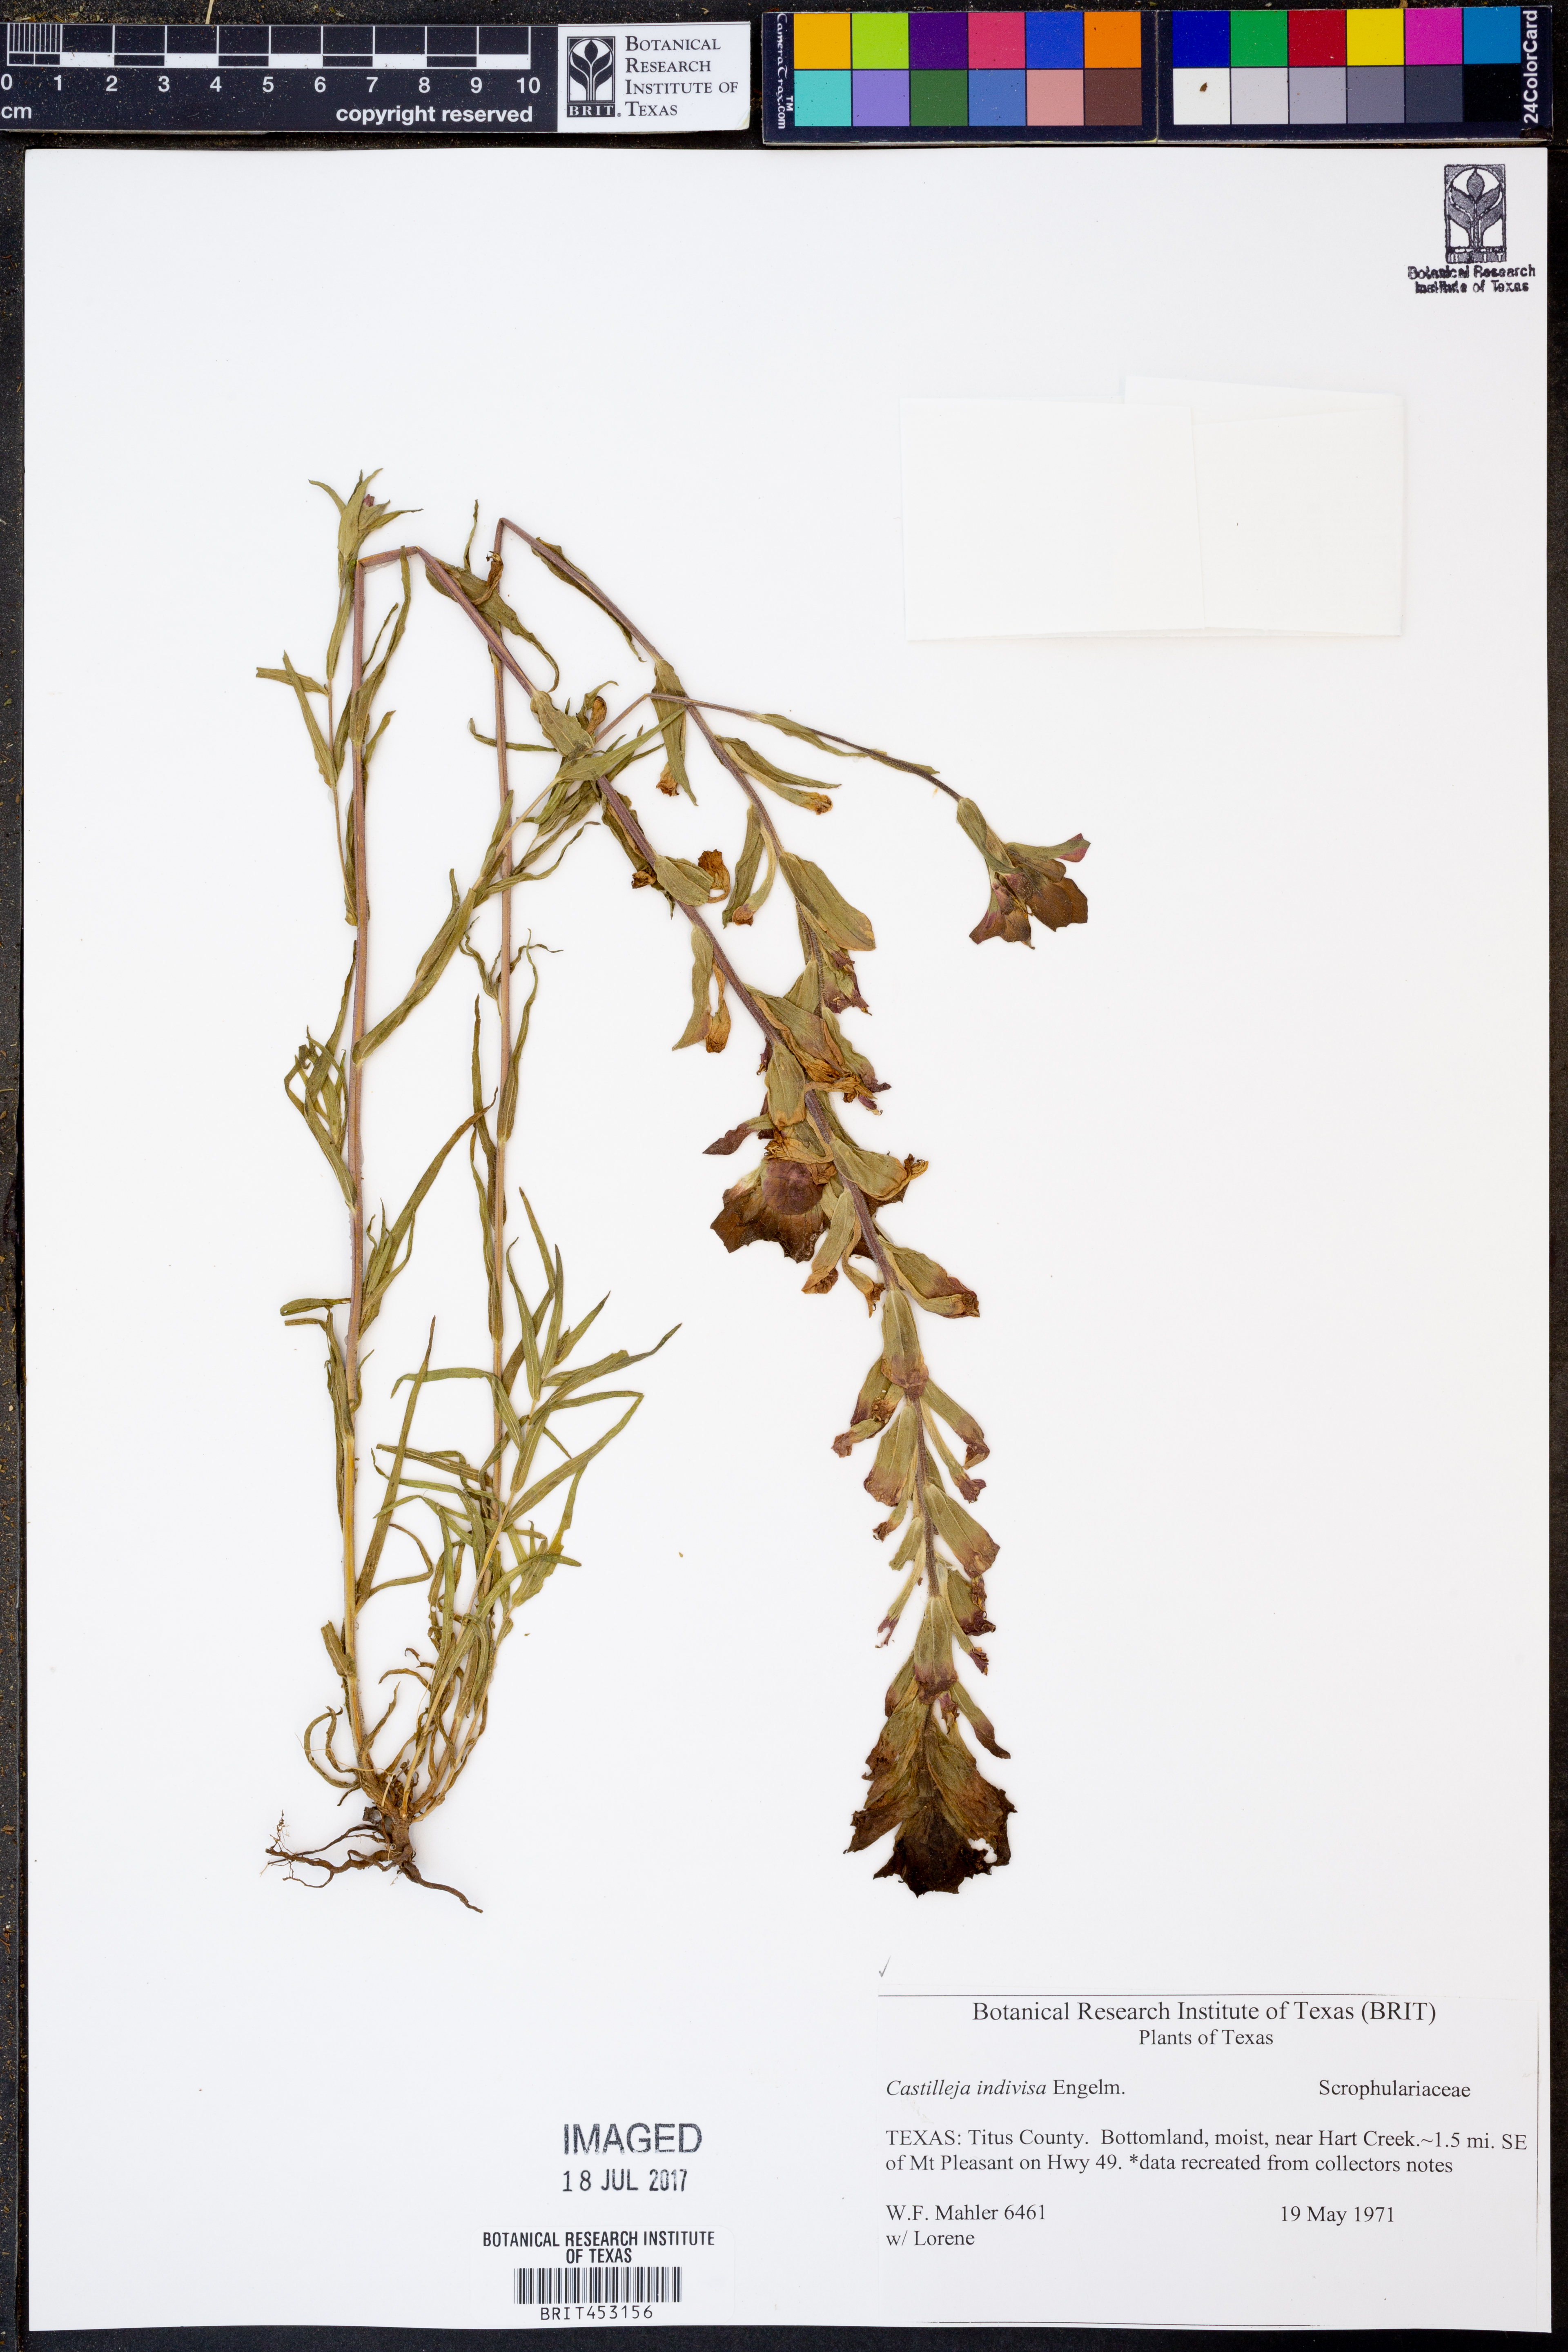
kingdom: Plantae
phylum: Tracheophyta
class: Magnoliopsida
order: Lamiales
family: Orobanchaceae
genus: Castilleja
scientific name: Castilleja indivisa
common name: Texas paintbrush
